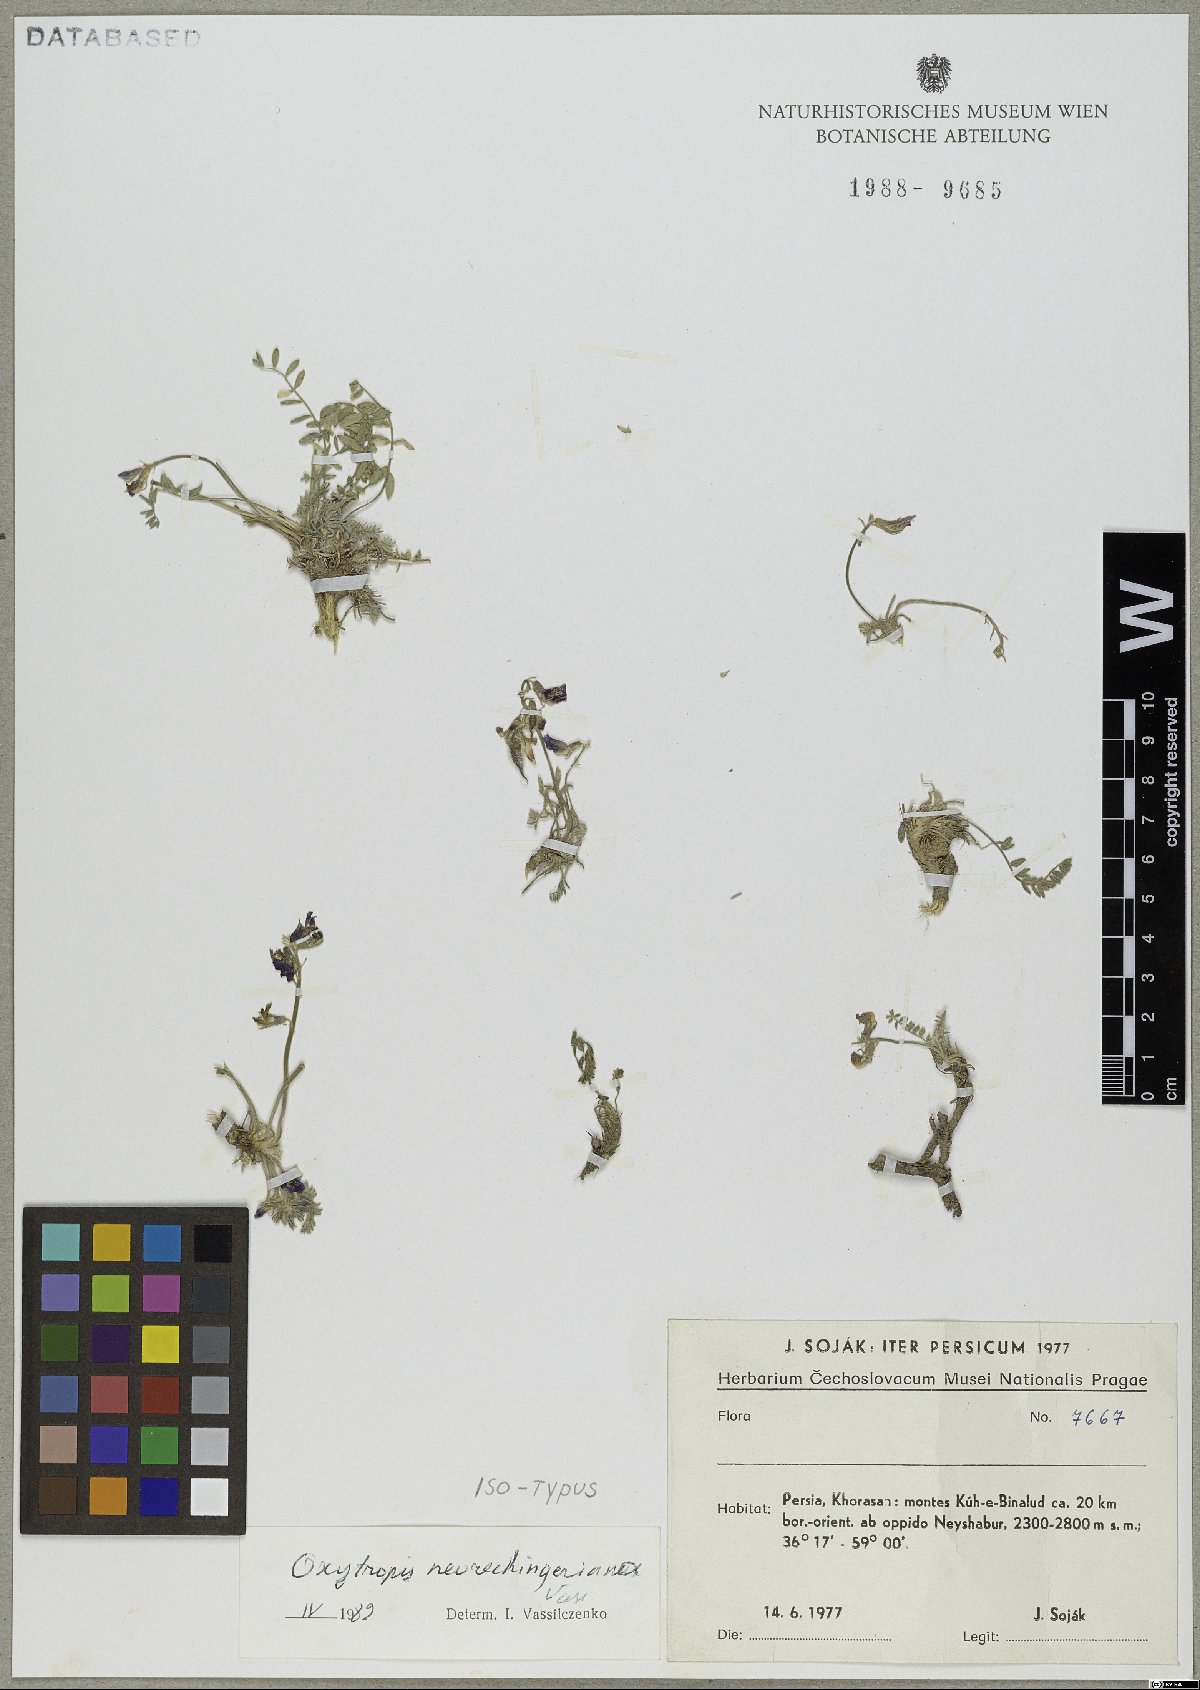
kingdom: Plantae
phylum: Tracheophyta
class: Magnoliopsida
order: Fabales
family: Fabaceae
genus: Oxytropis
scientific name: Oxytropis neorechingeriana
